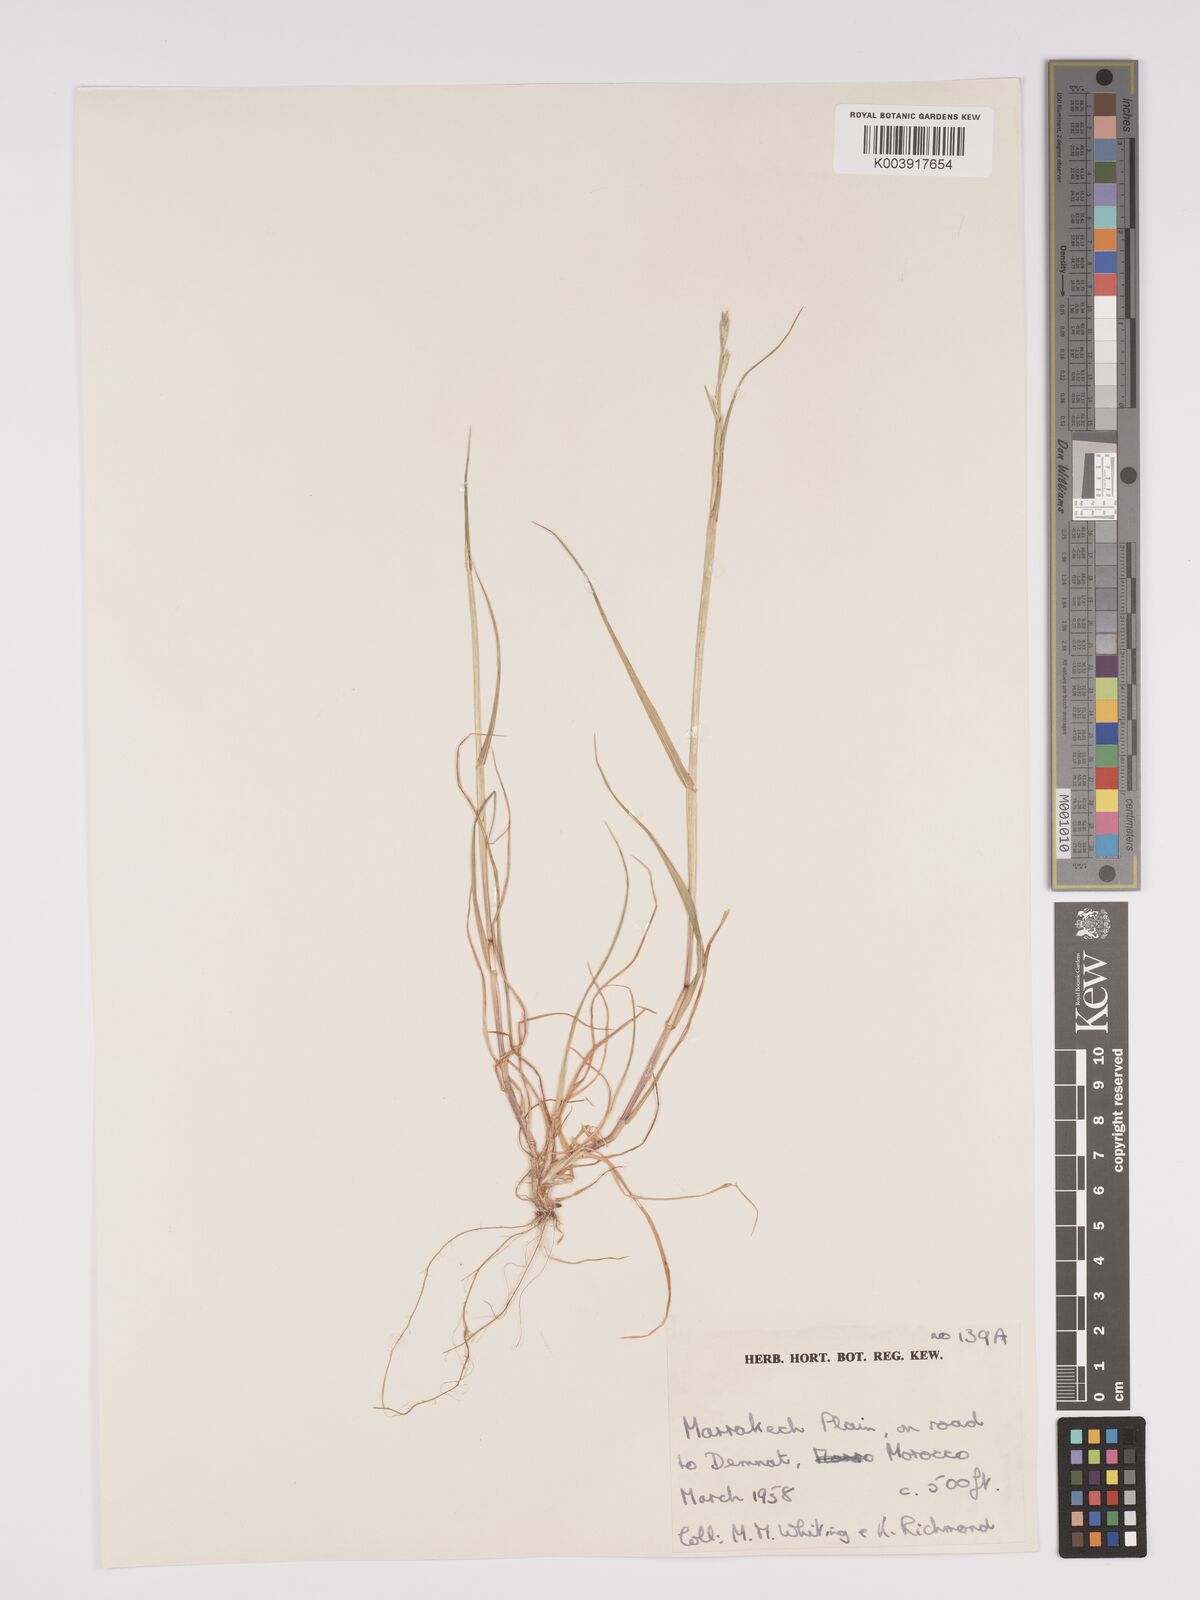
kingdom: Plantae
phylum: Tracheophyta
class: Liliopsida
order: Poales
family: Poaceae
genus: Lolium
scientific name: Lolium multiflorum
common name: Annual ryegrass
